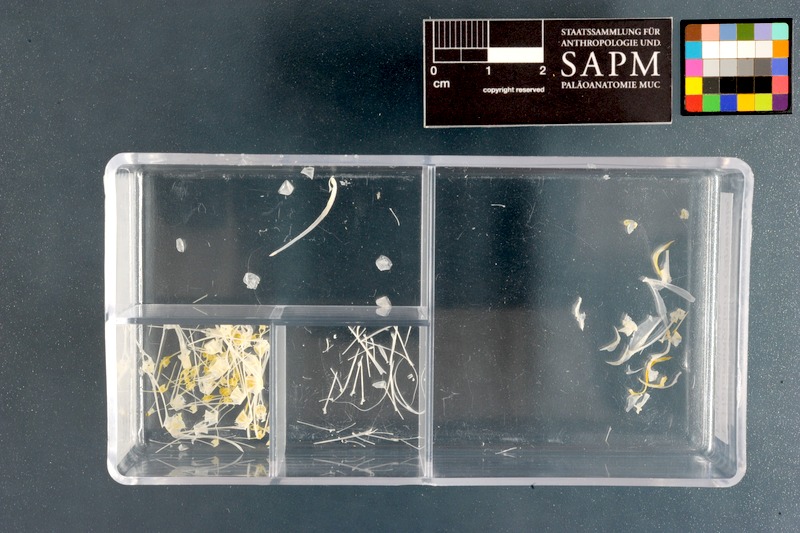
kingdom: Animalia
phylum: Chordata
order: Pleuronectiformes
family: Soleidae
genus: Heteromycteris
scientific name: Heteromycteris capensis
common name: Cape sole
